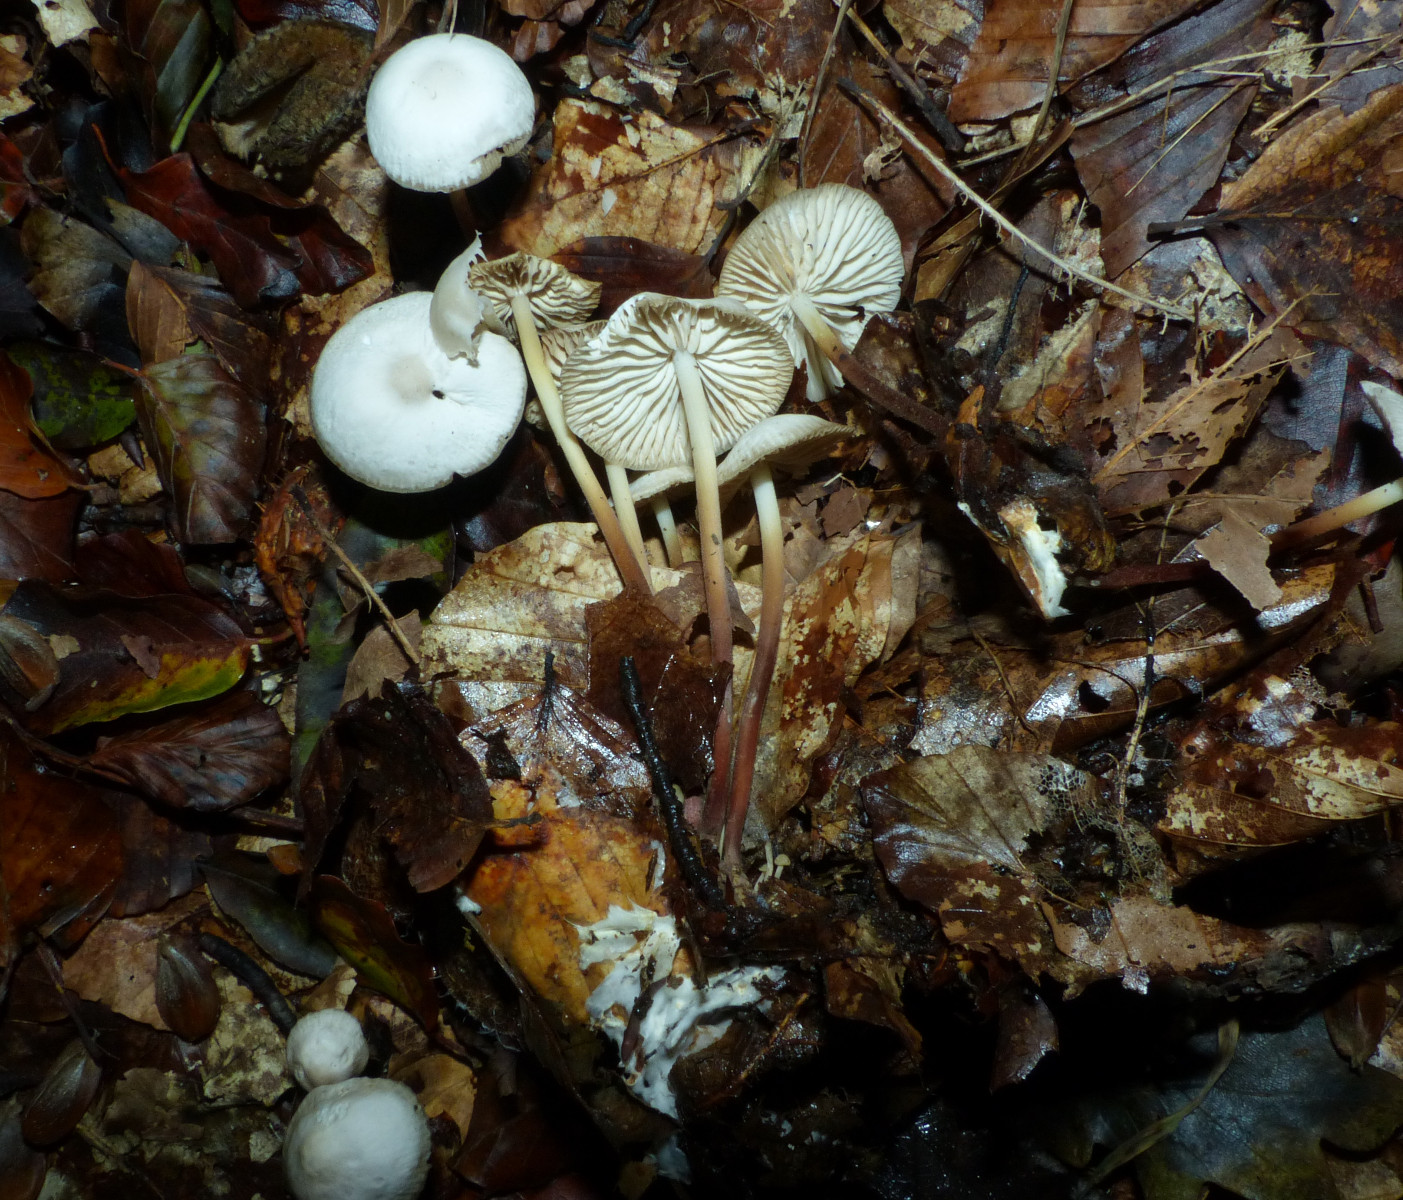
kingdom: Fungi
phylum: Basidiomycota
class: Agaricomycetes
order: Agaricales
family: Marasmiaceae
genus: Marasmius
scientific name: Marasmius wynneae
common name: hvælvet bruskhat
